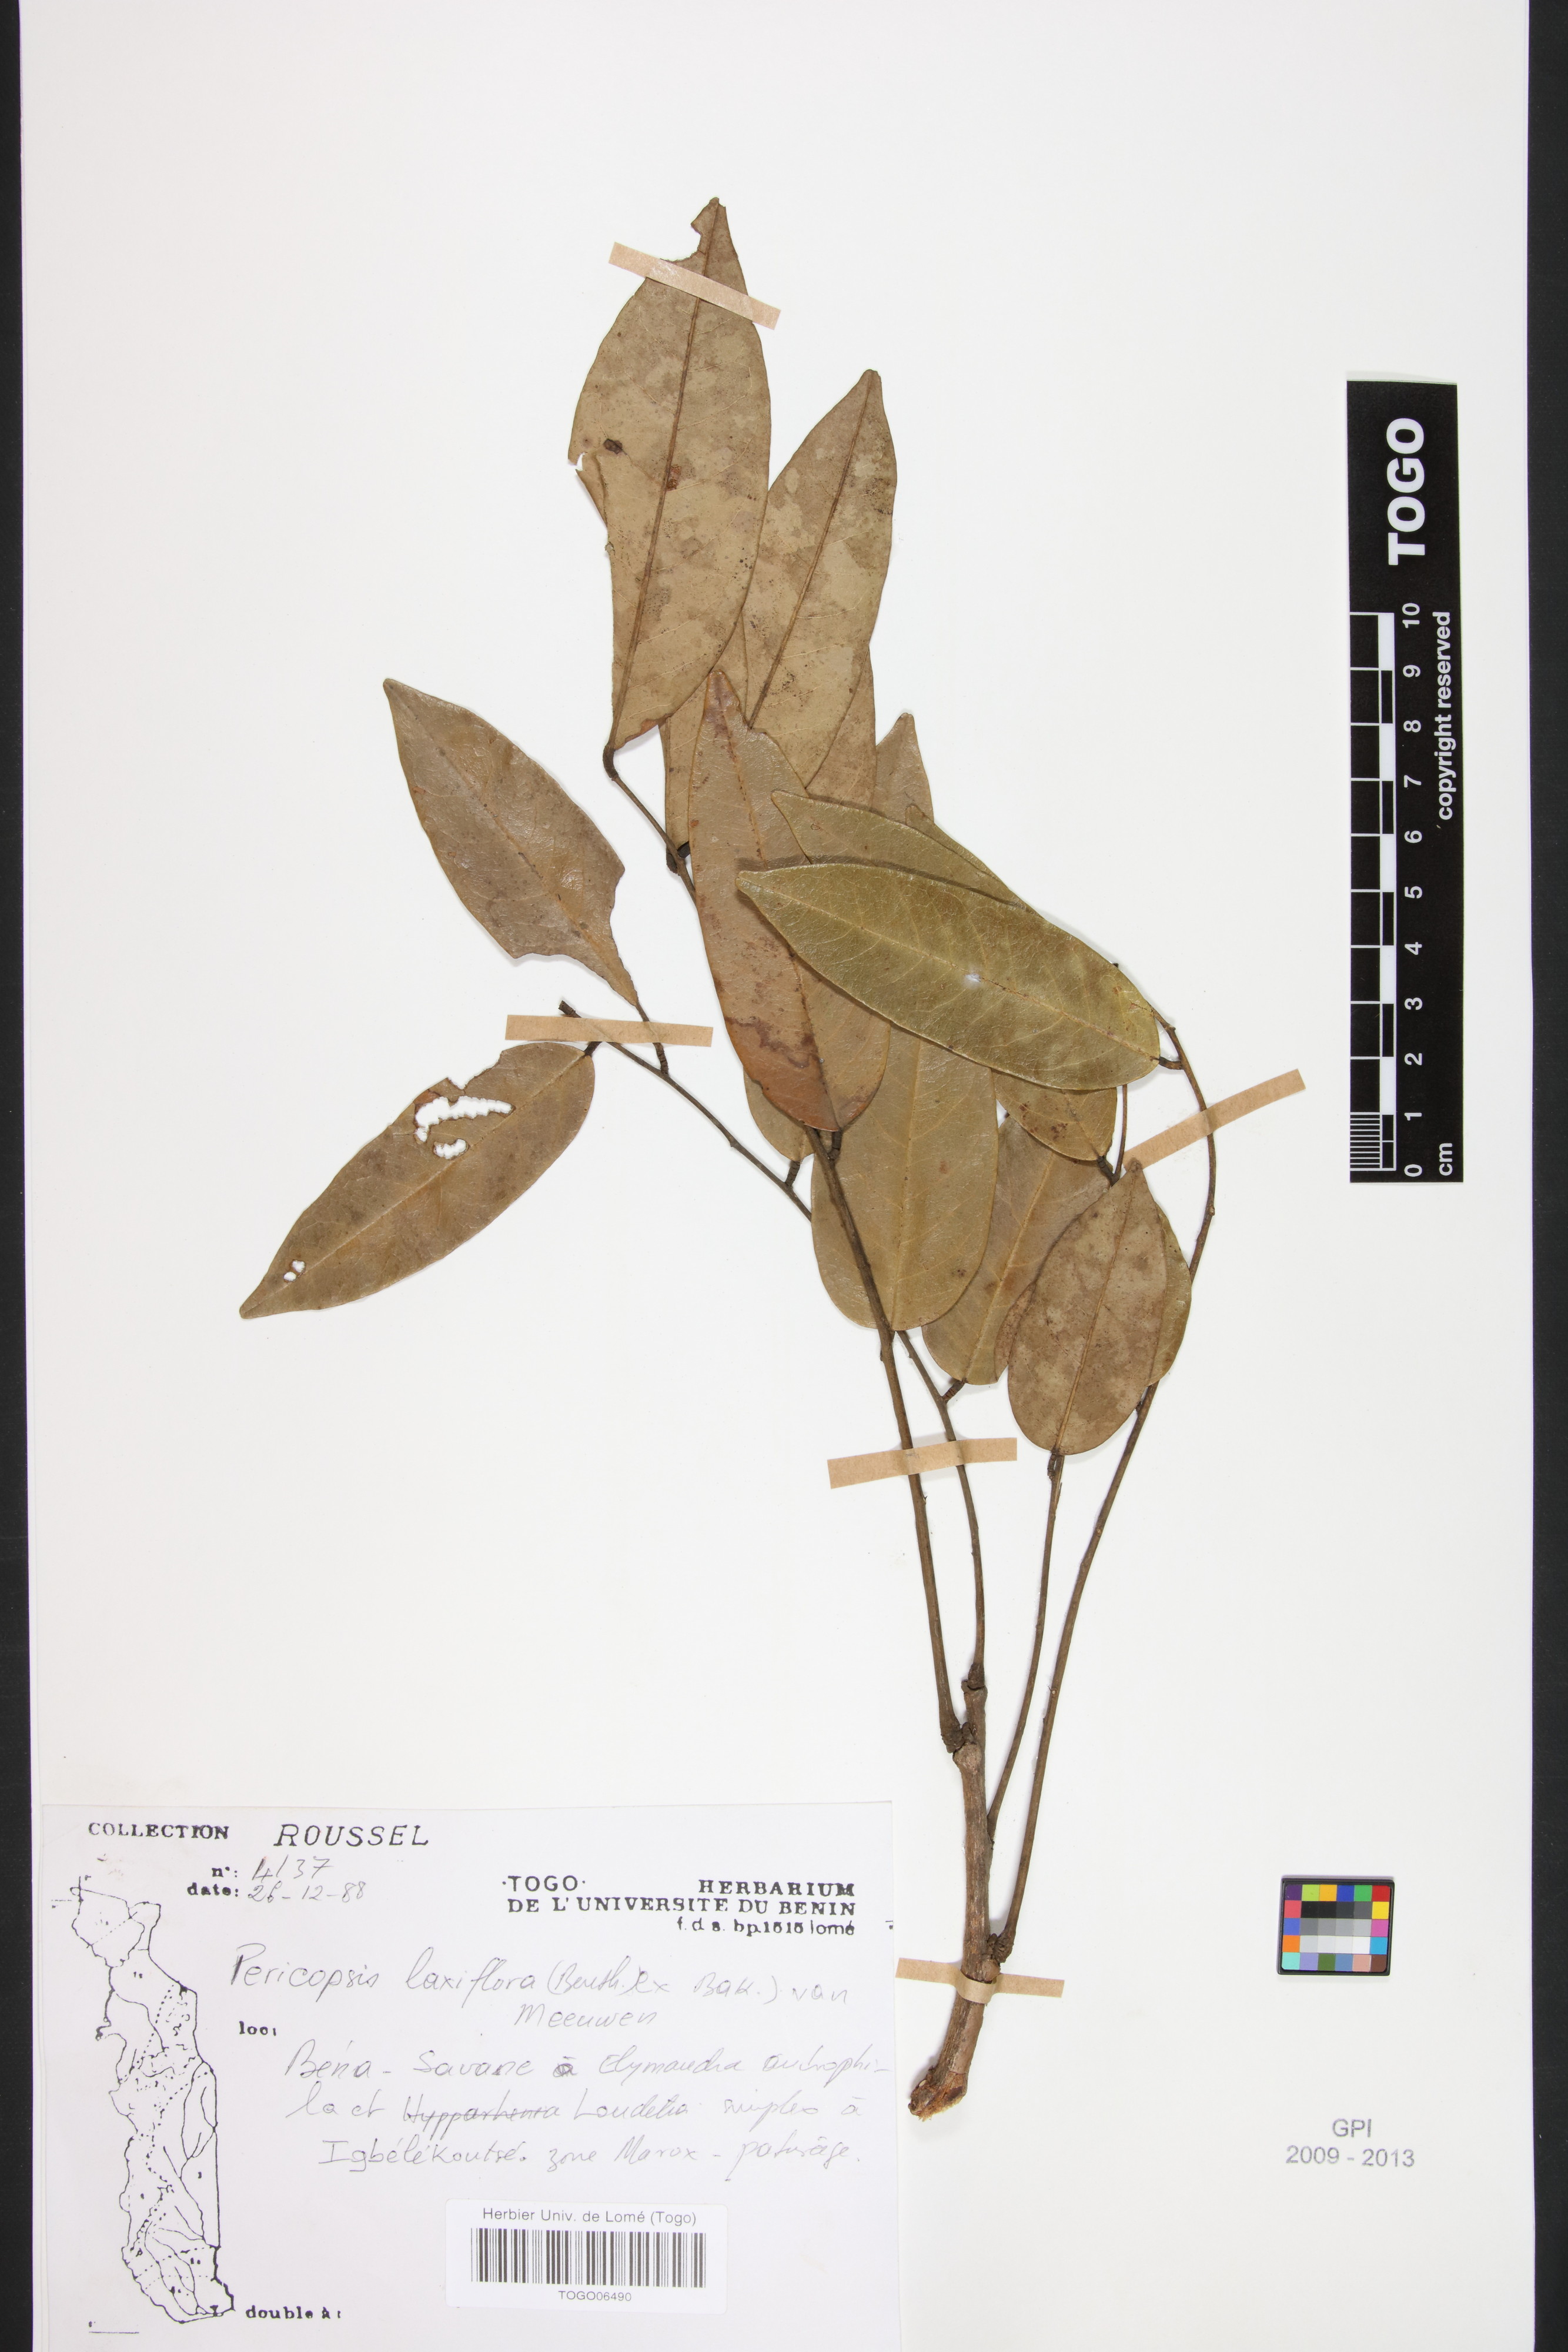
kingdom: Plantae
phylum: Tracheophyta
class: Magnoliopsida
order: Fabales
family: Fabaceae
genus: Pericopsis
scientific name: Pericopsis laxiflora
